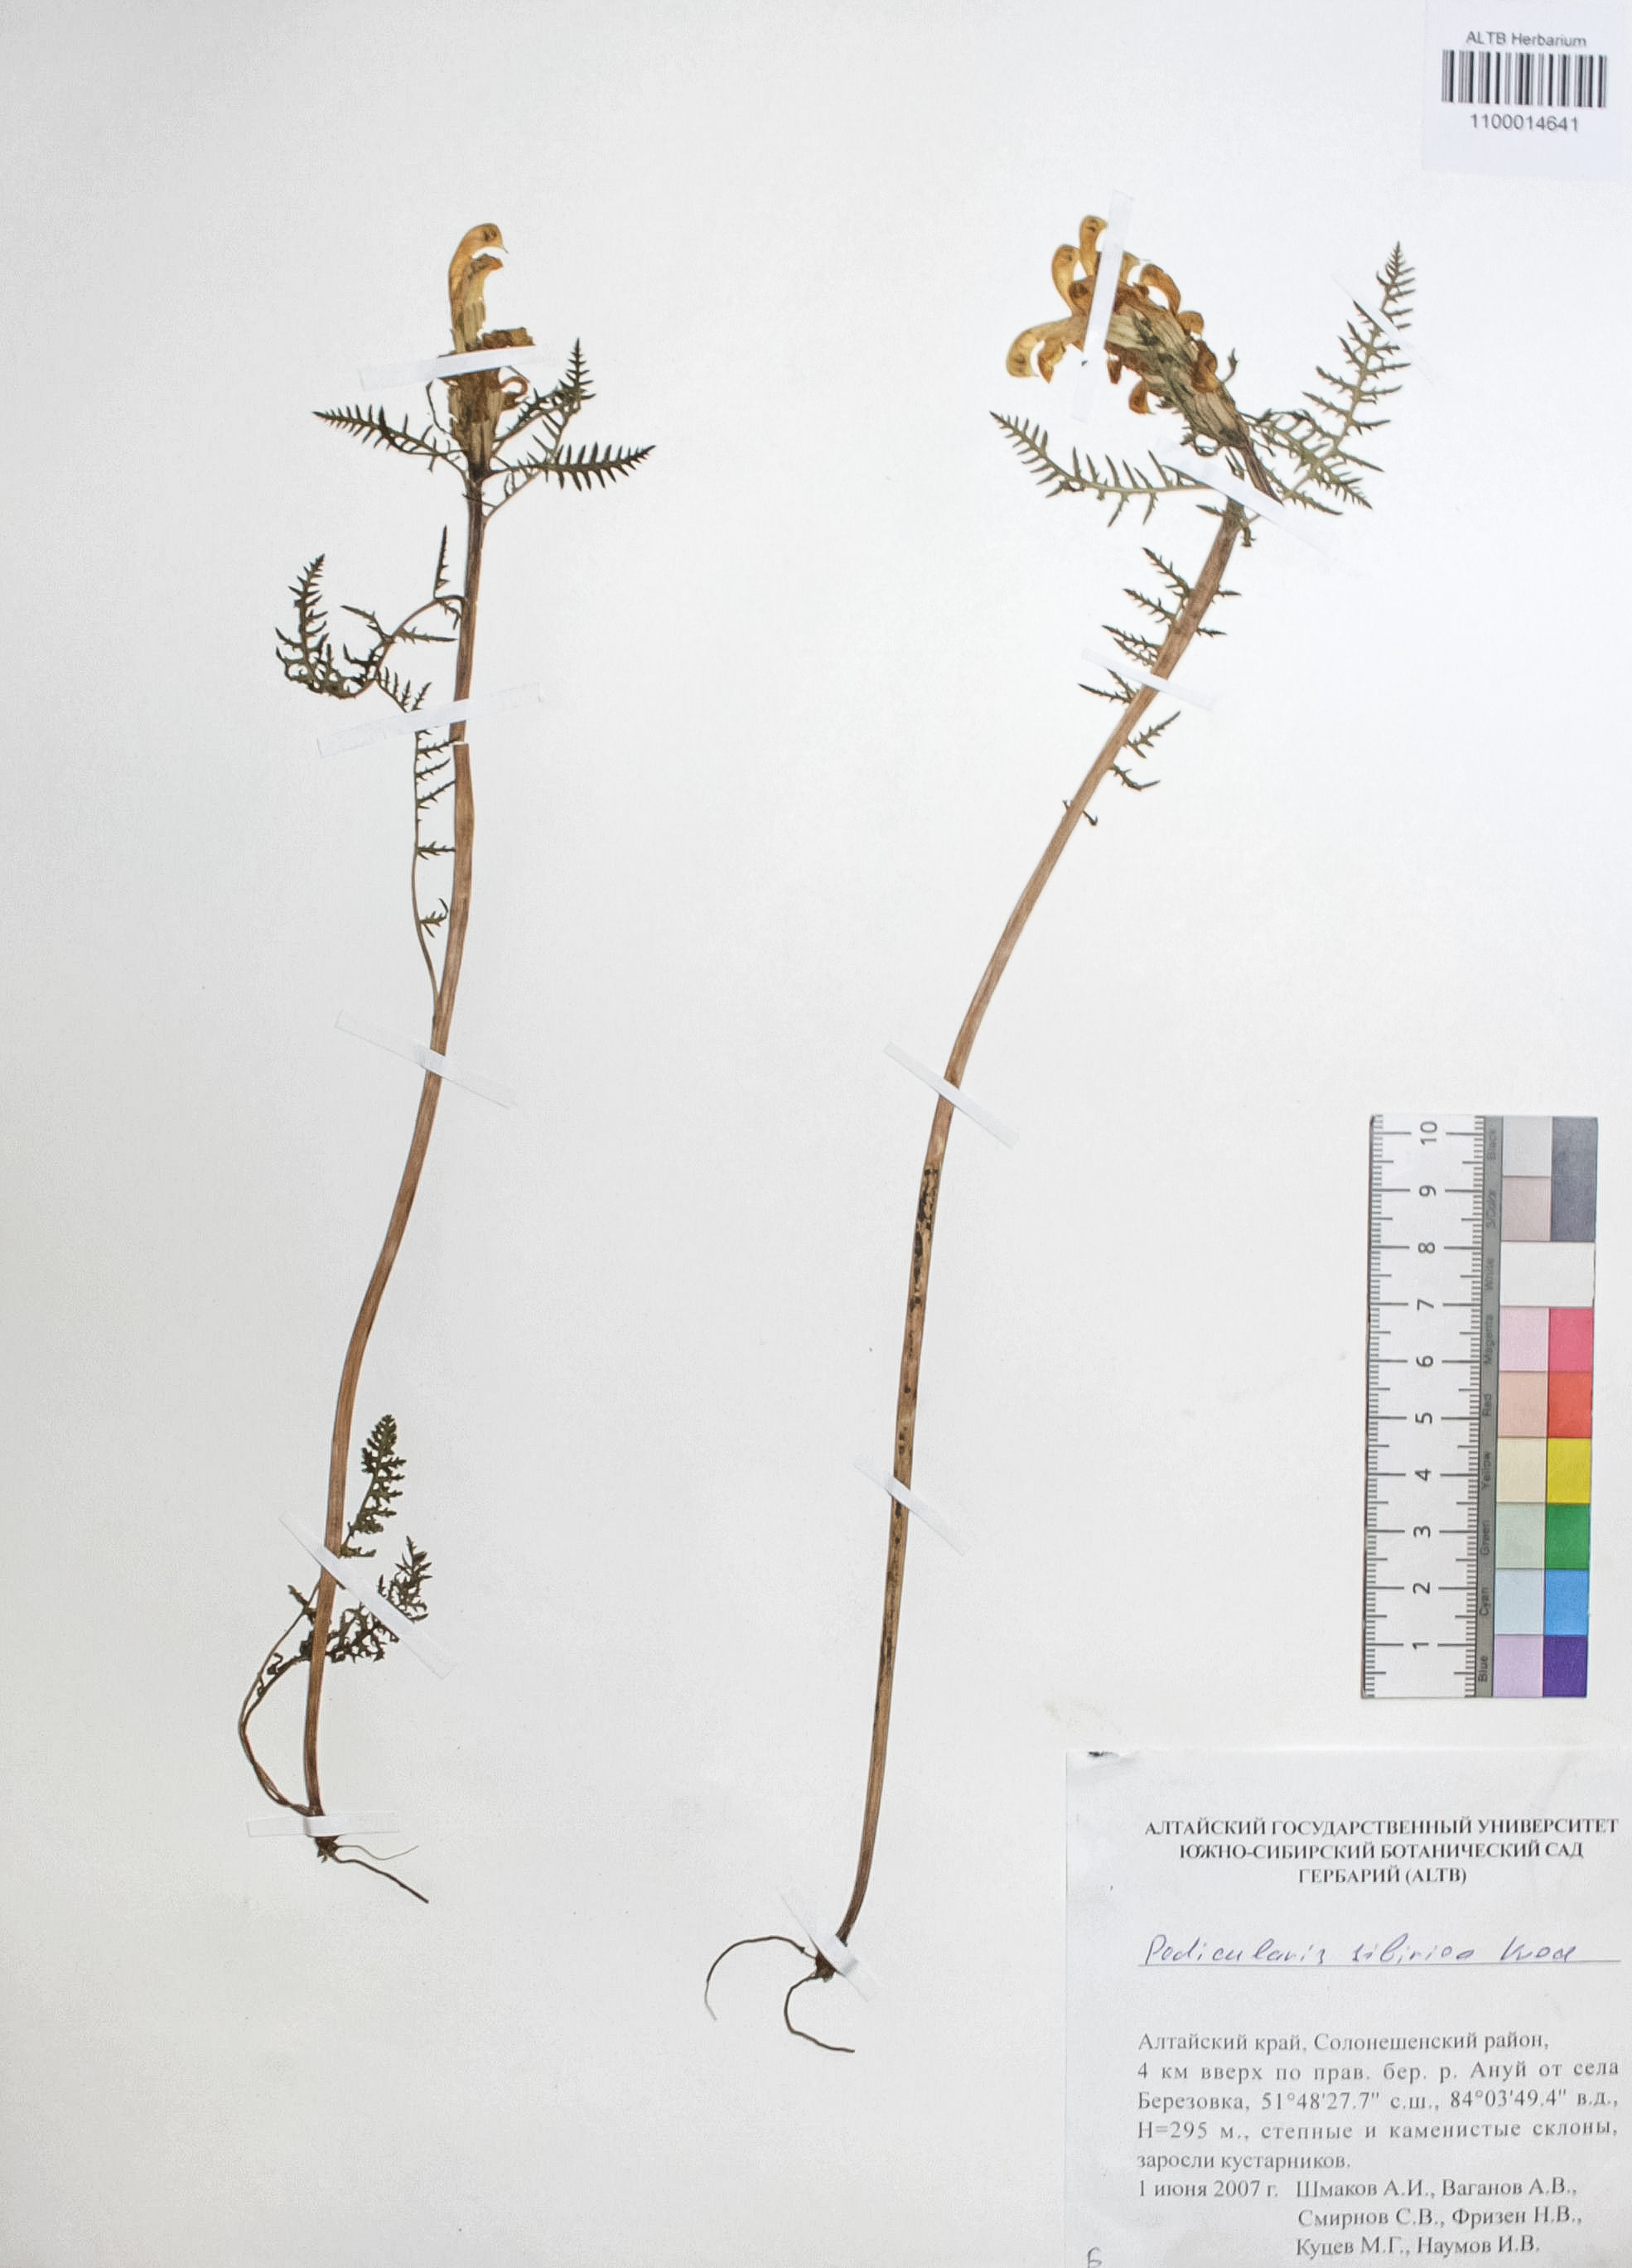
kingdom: Plantae
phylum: Tracheophyta
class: Magnoliopsida
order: Lamiales
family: Orobanchaceae
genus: Pedicularis
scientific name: Pedicularis sibirica
